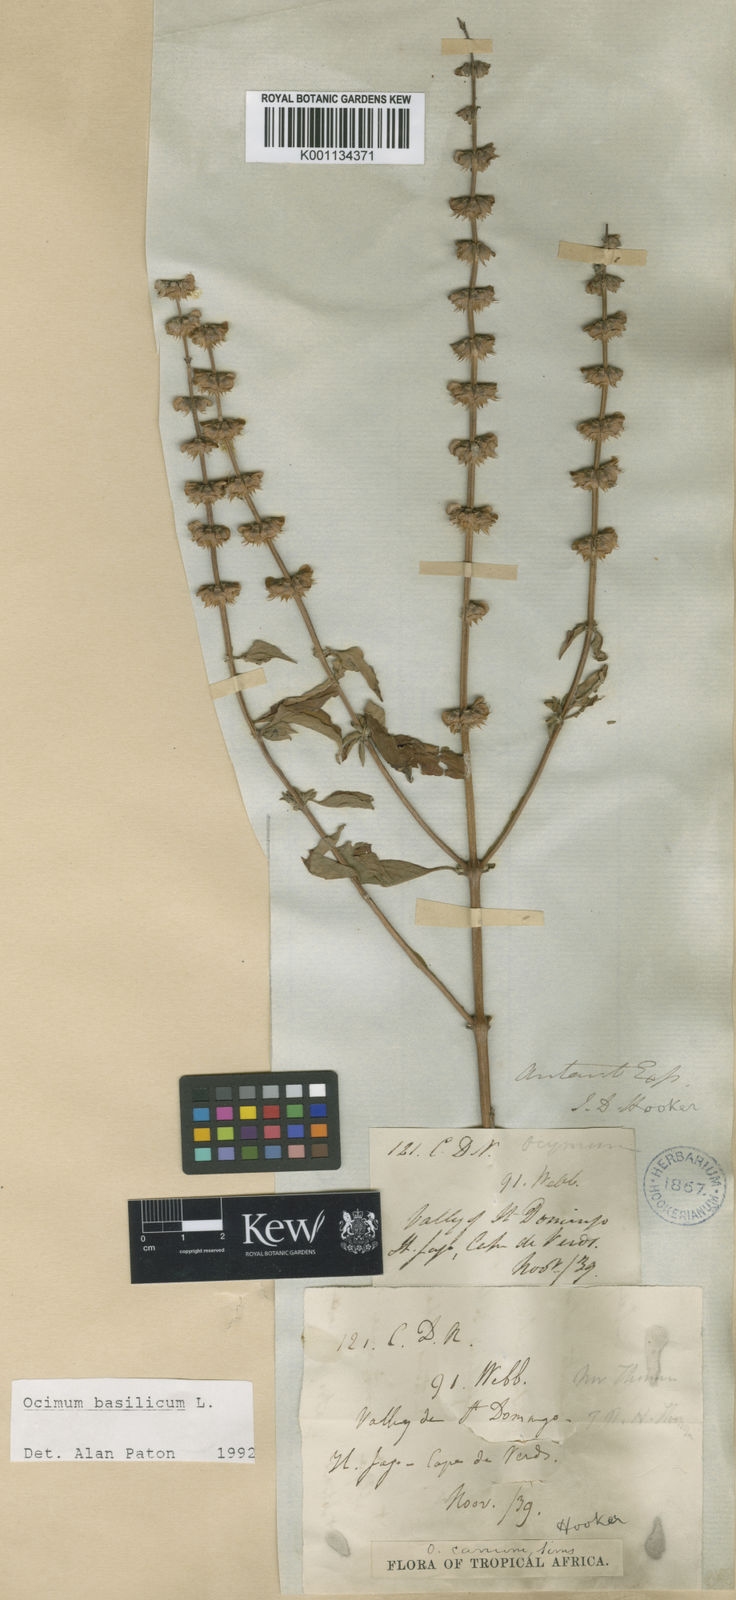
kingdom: Plantae
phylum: Tracheophyta
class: Magnoliopsida
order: Lamiales
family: Lamiaceae
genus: Ocimum
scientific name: Ocimum
